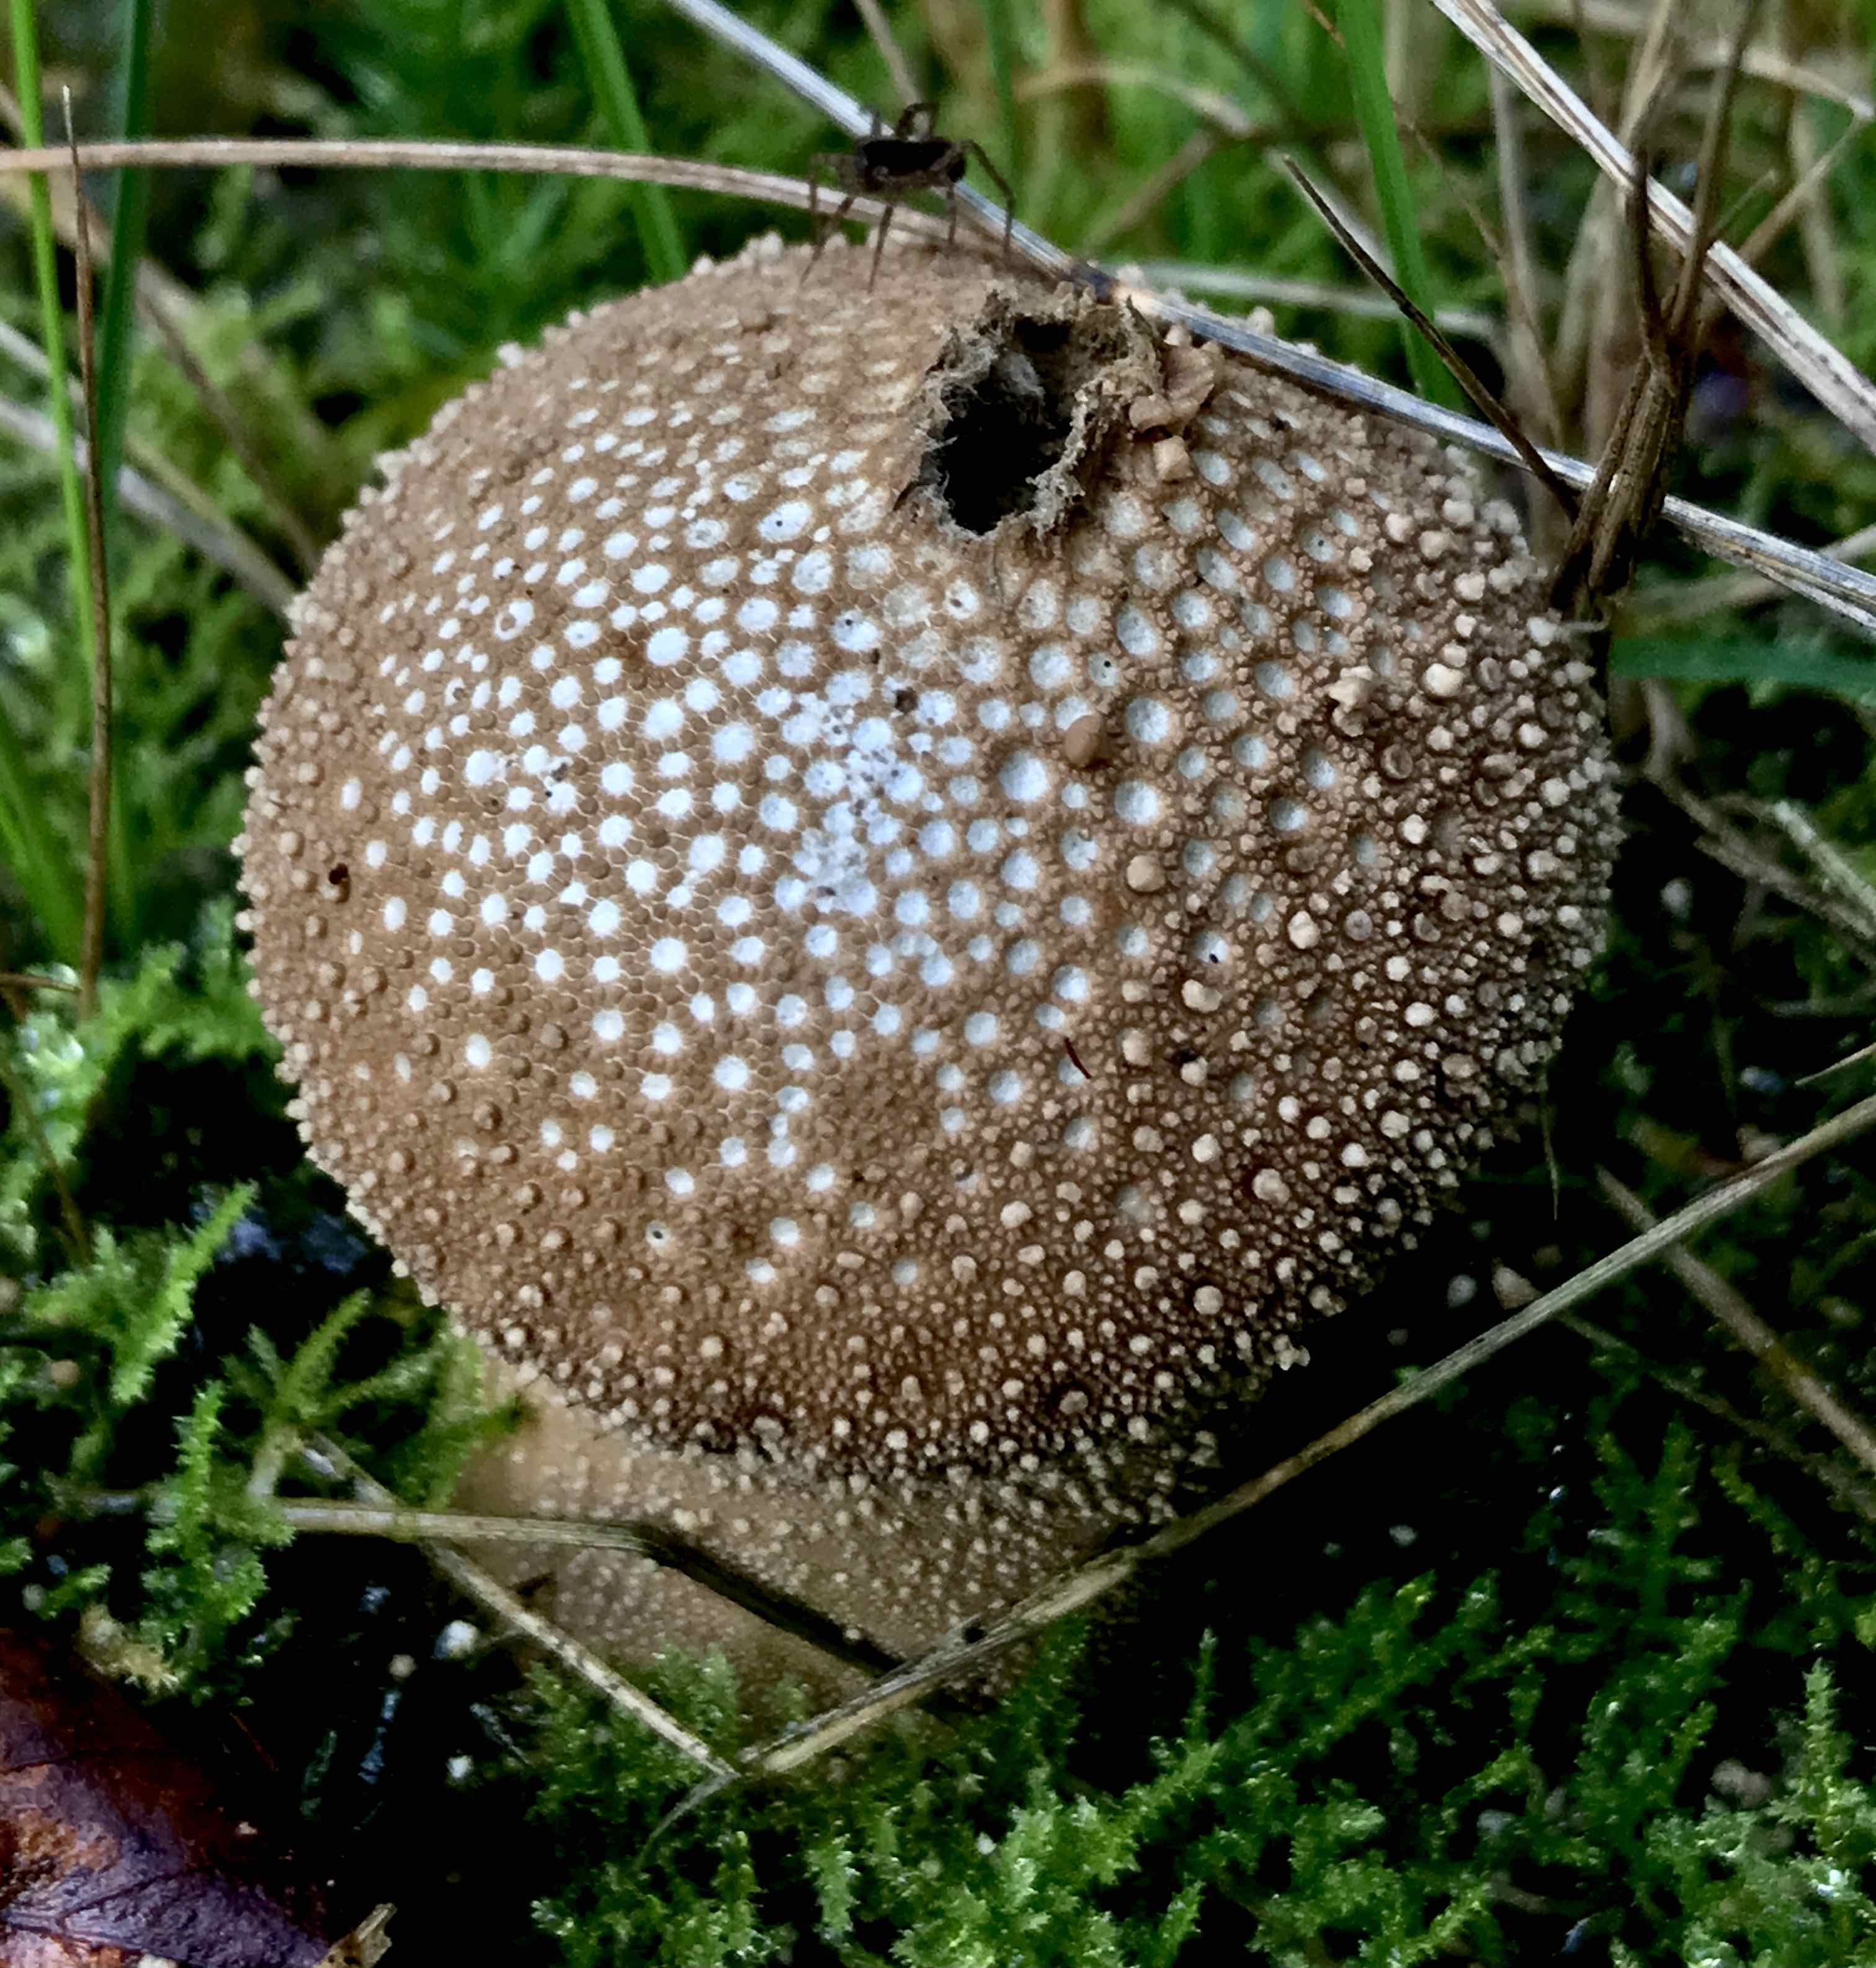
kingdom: Fungi
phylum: Basidiomycota
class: Agaricomycetes
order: Agaricales
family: Lycoperdaceae
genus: Lycoperdon
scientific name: Lycoperdon perlatum
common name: krystal-støvbold
